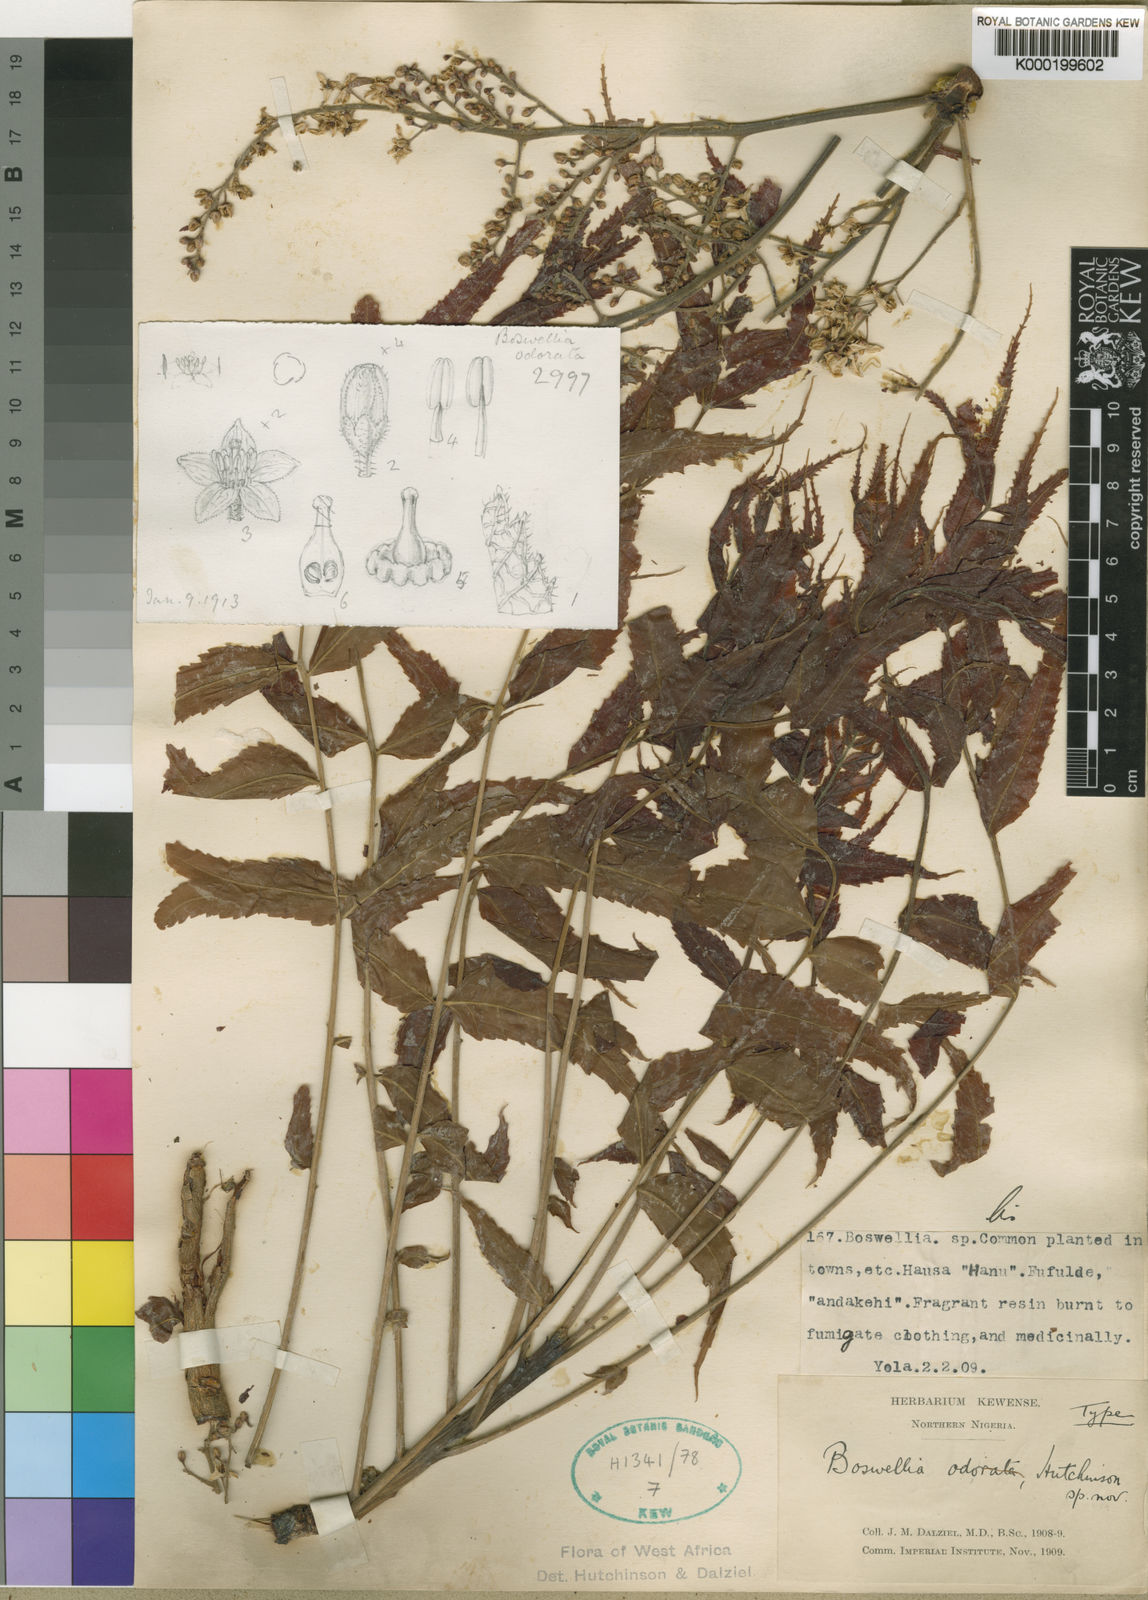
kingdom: Plantae
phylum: Tracheophyta
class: Magnoliopsida
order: Sapindales
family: Burseraceae
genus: Boswellia
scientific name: Boswellia dalzielii
